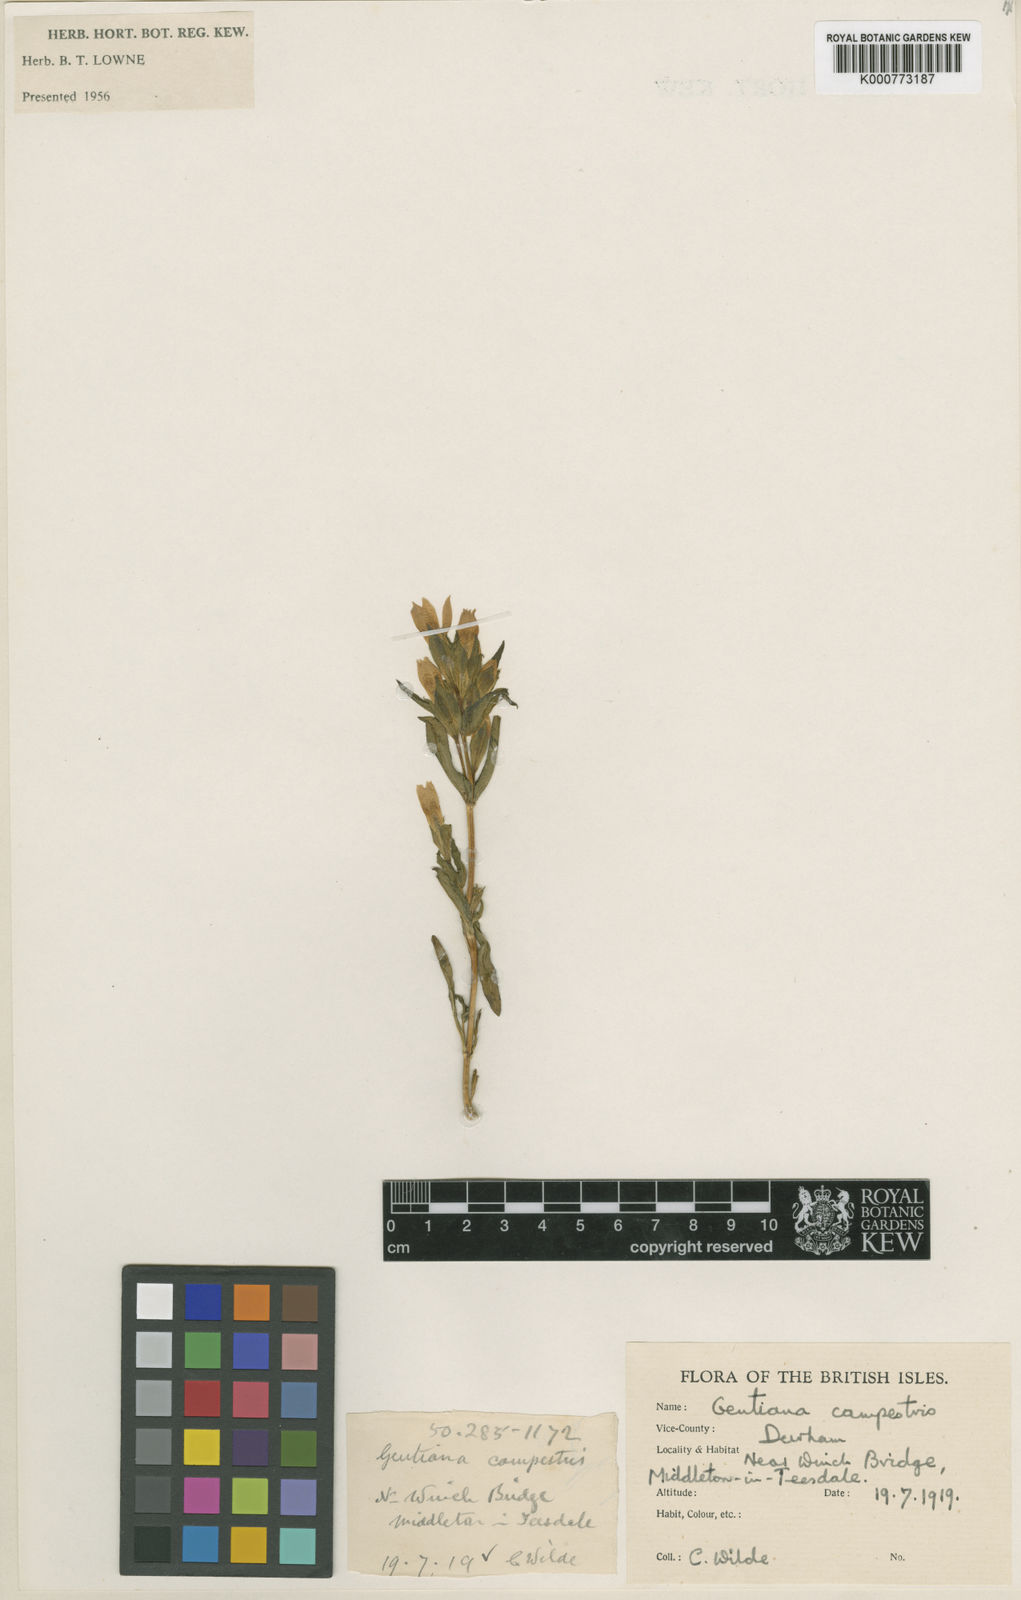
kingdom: Plantae
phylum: Tracheophyta
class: Magnoliopsida
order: Gentianales
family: Gentianaceae
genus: Gentianella
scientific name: Gentianella
